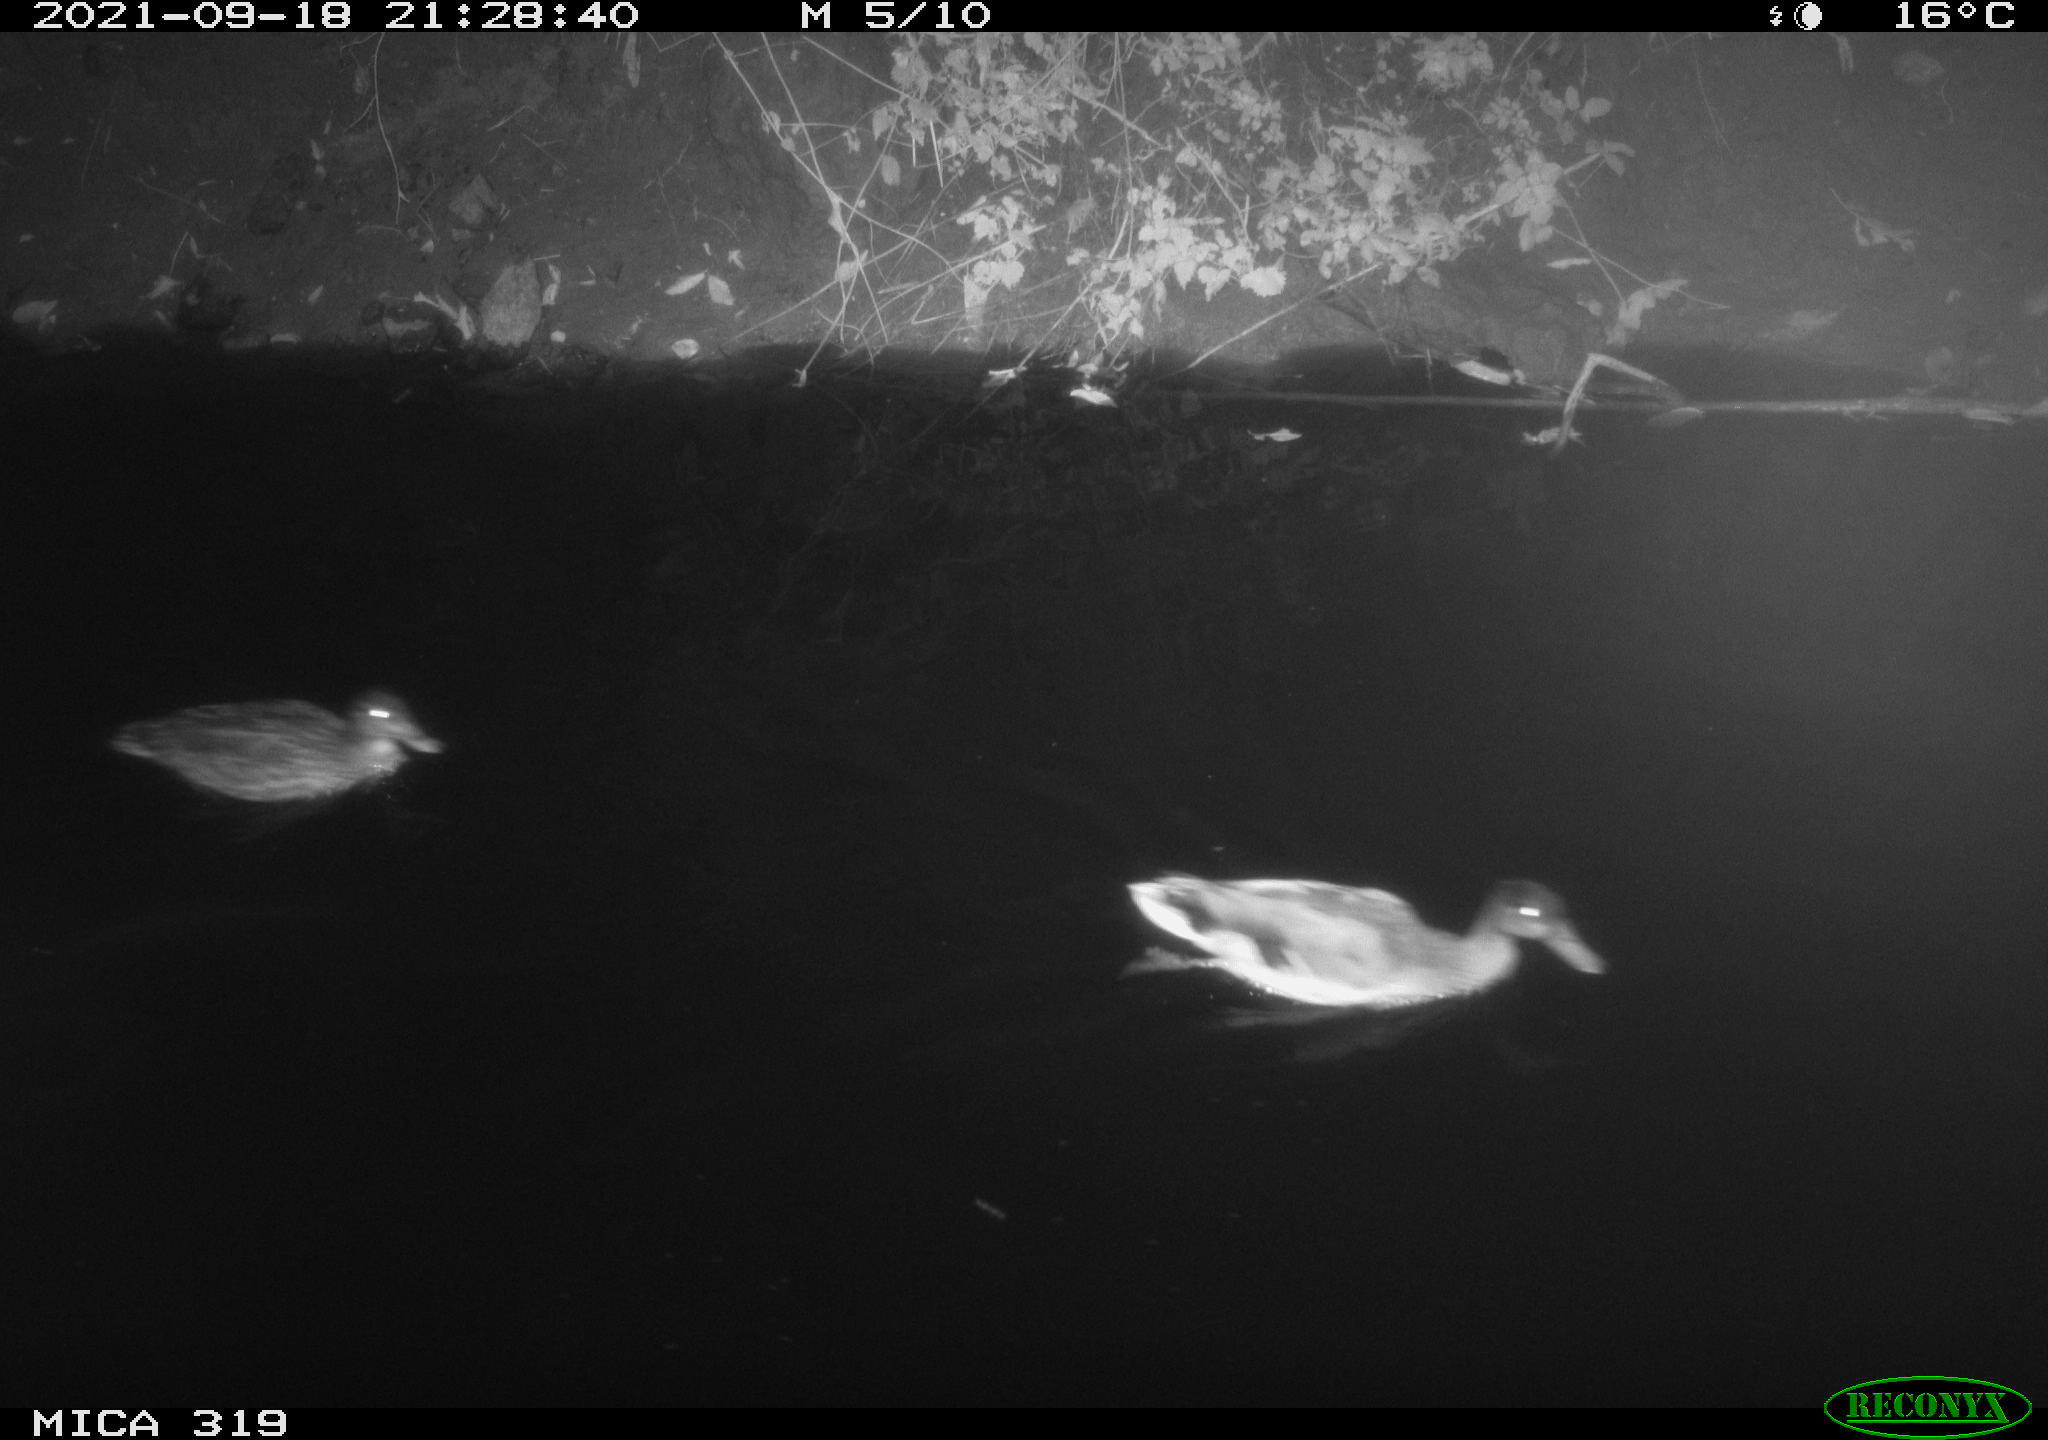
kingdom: Animalia
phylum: Chordata
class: Aves
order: Anseriformes
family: Anatidae
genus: Anas
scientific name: Anas platyrhynchos
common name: Mallard
